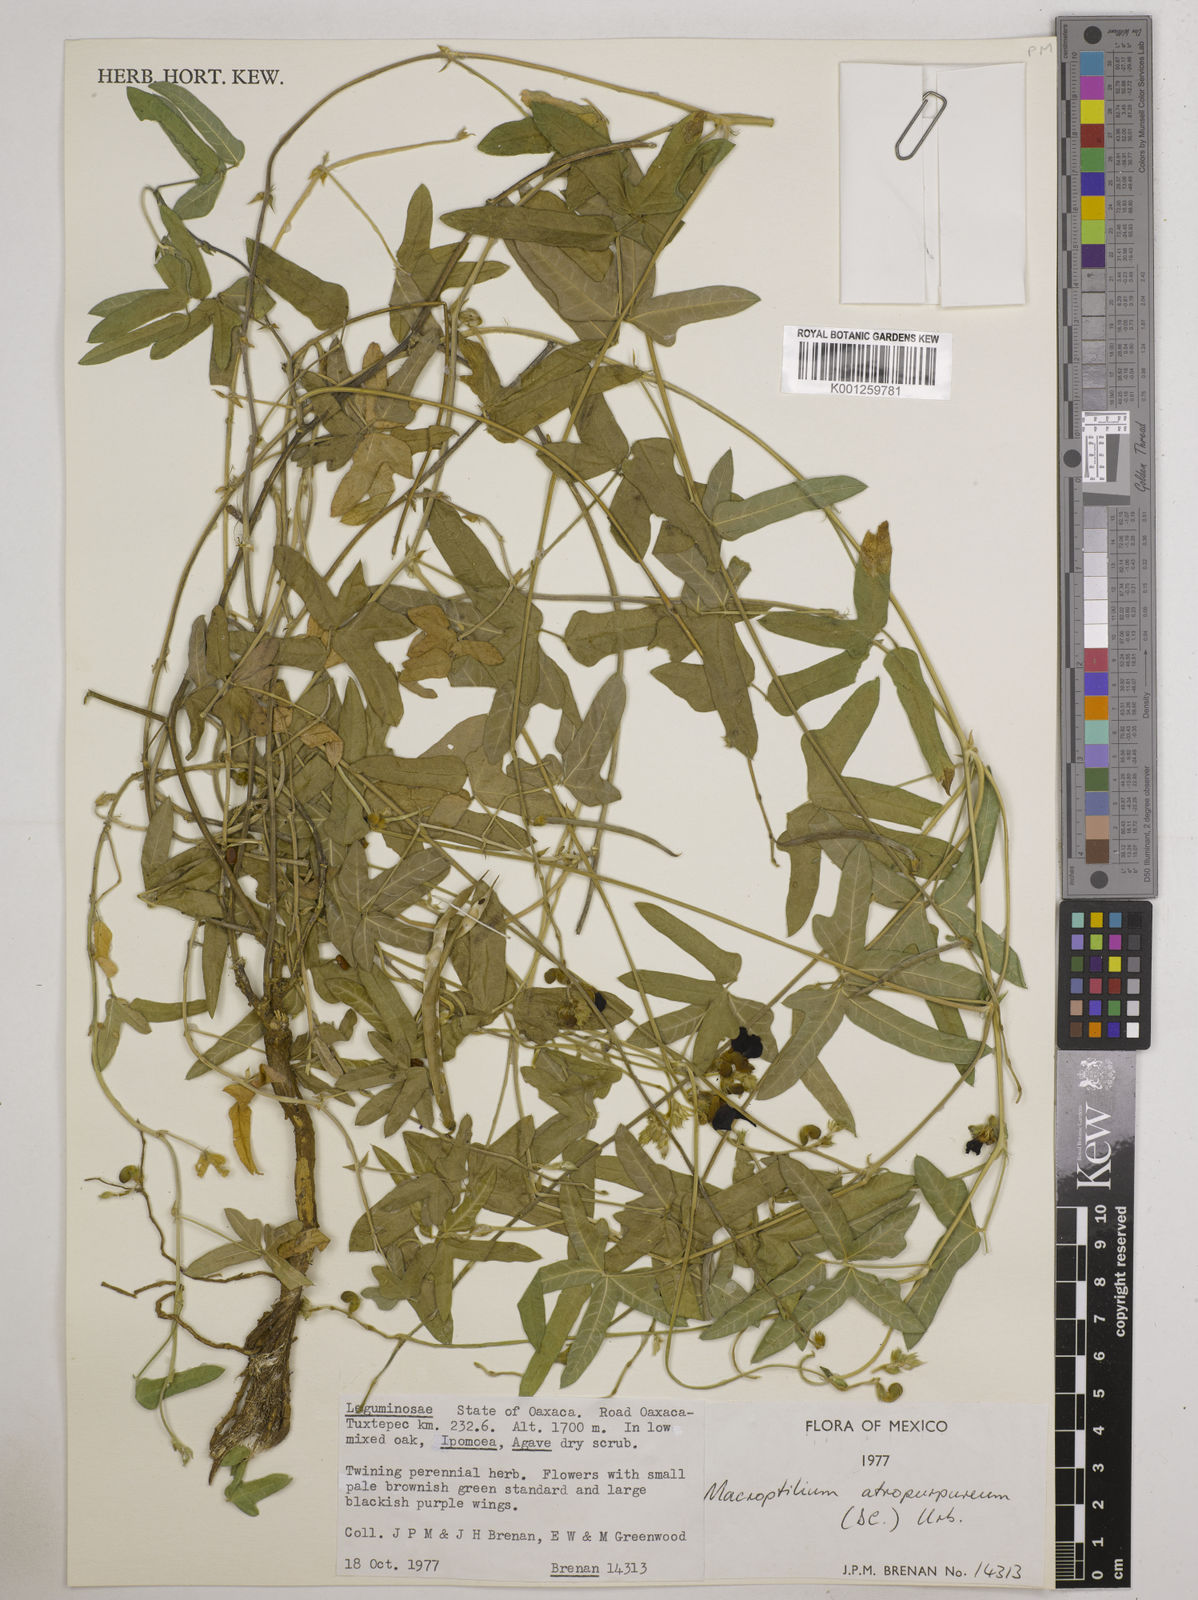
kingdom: Plantae
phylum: Tracheophyta
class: Magnoliopsida
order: Fabales
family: Fabaceae
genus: Macroptilium
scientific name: Macroptilium atropurpureum
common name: Purple bushbean
